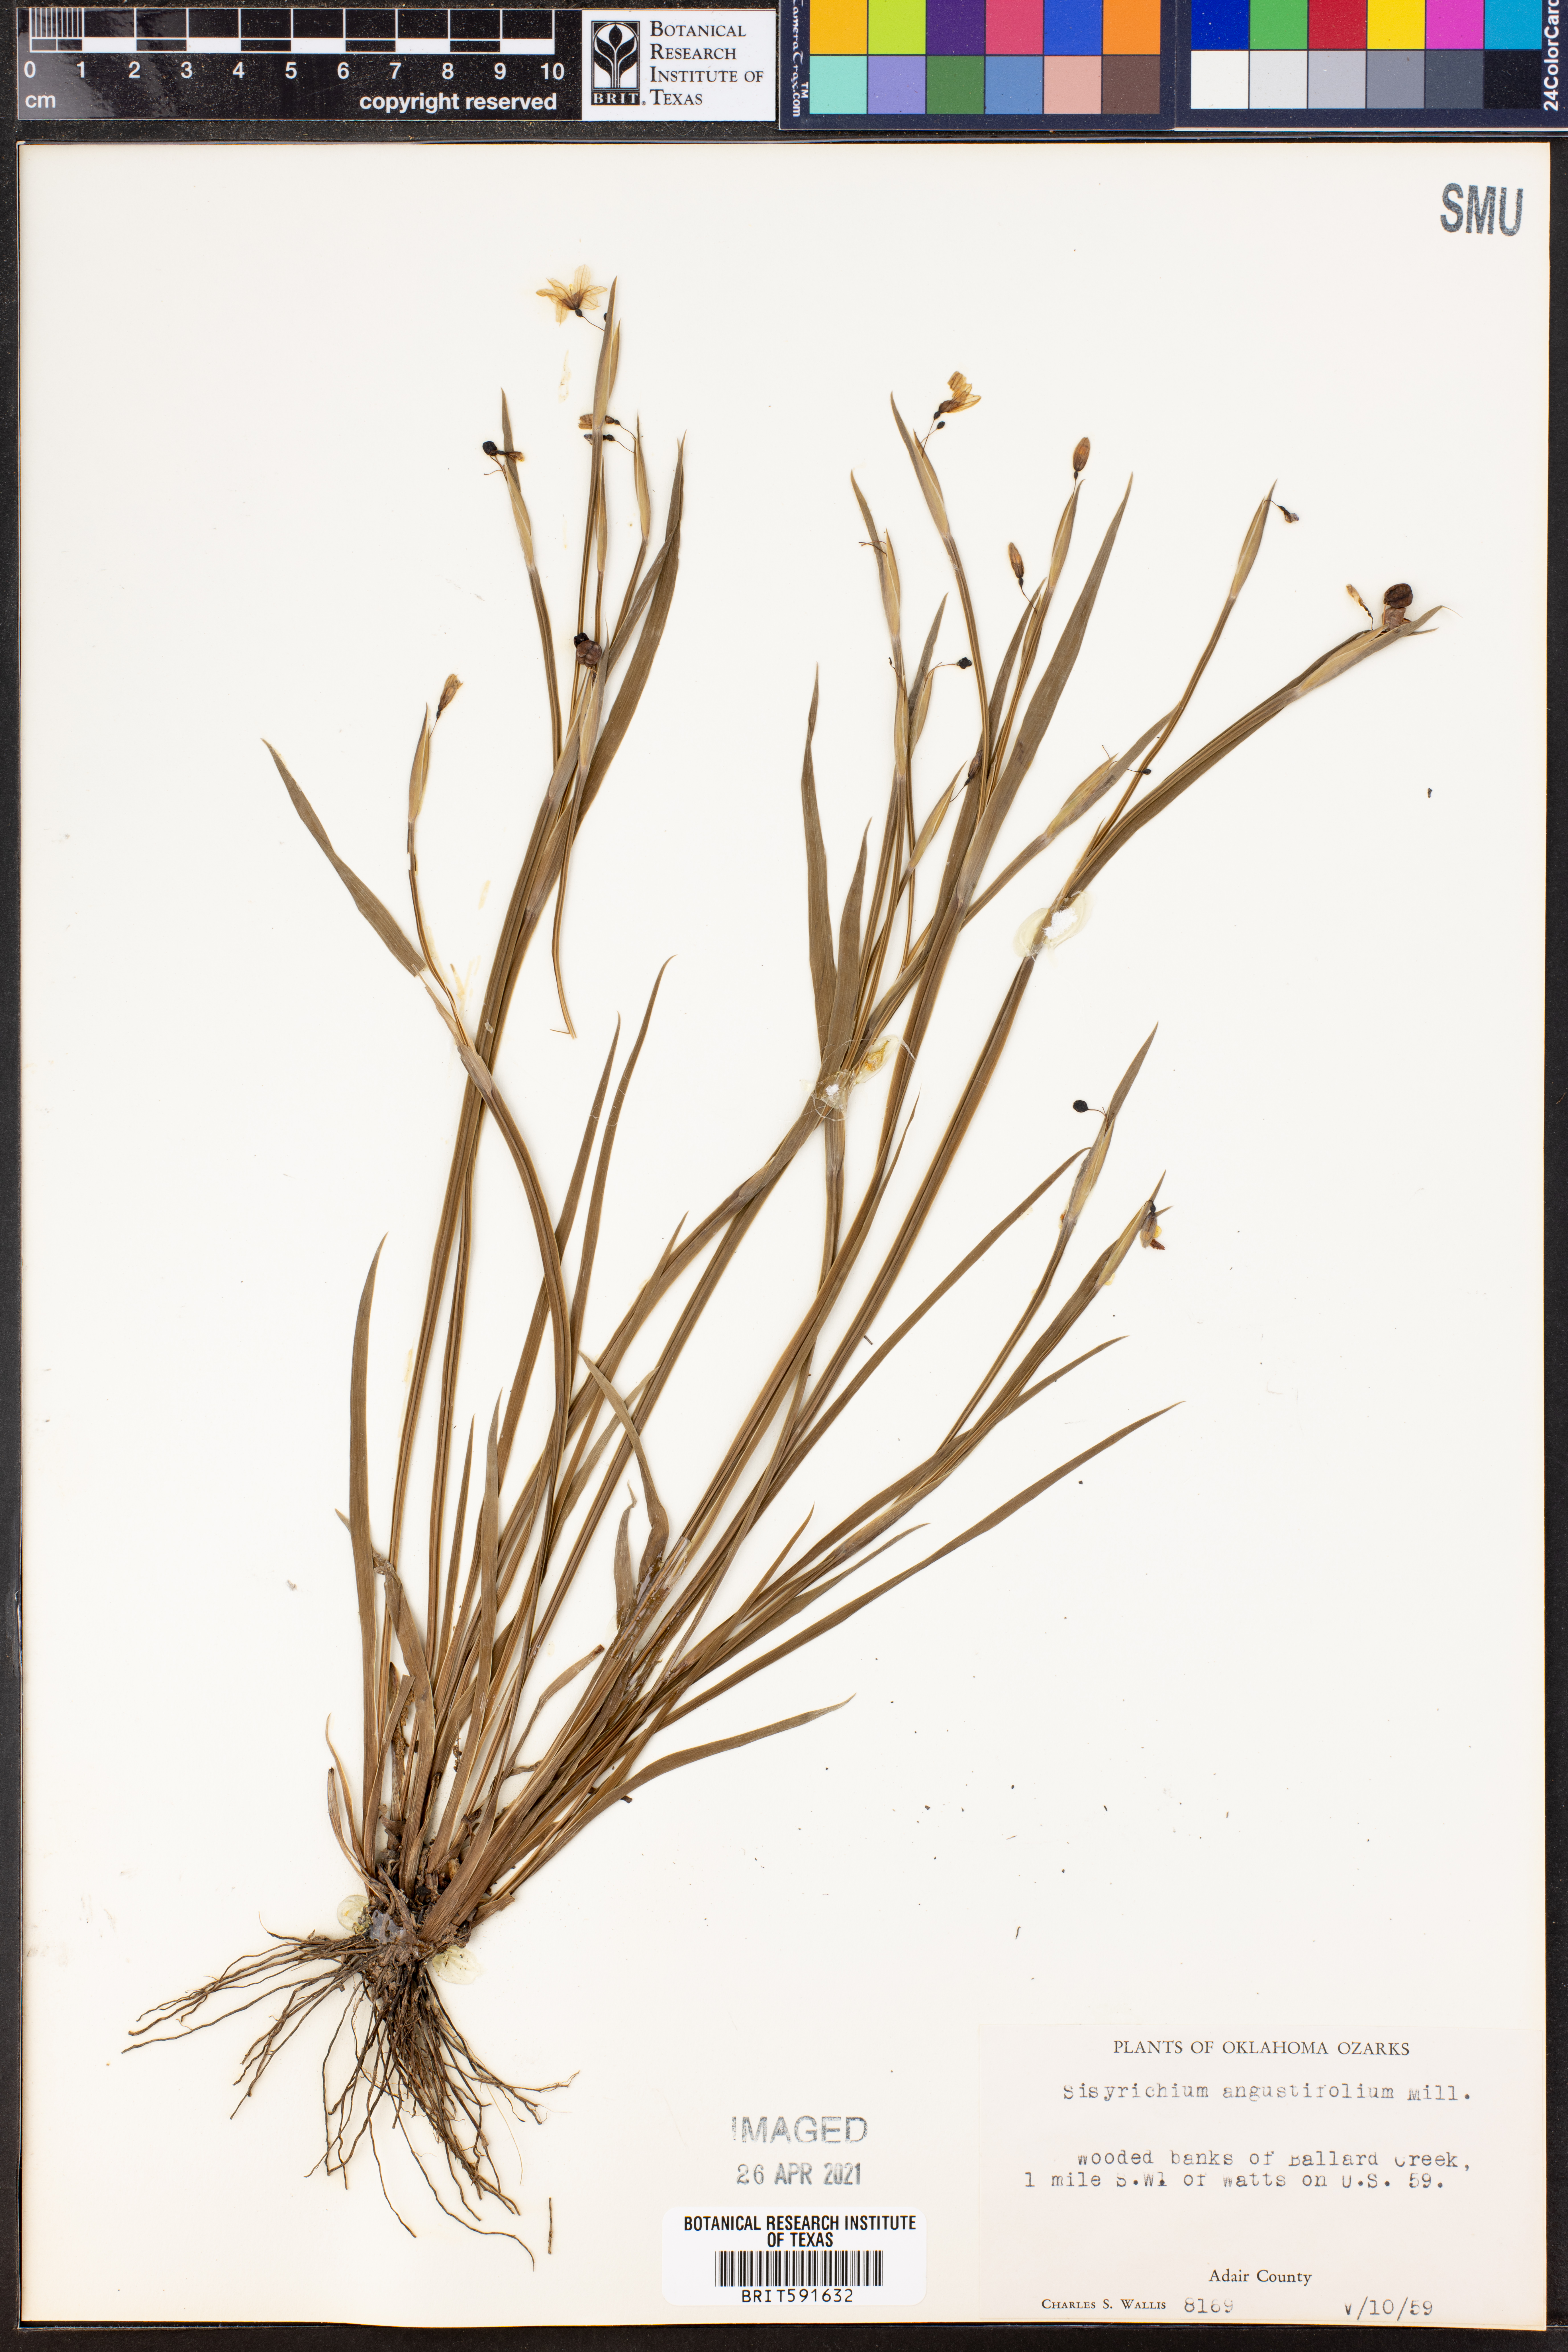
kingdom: Plantae
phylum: Tracheophyta
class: Liliopsida
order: Asparagales
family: Iridaceae
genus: Sisyrinchium
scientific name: Sisyrinchium angustifolium
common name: Narrow-leaf blue-eyed-grass
